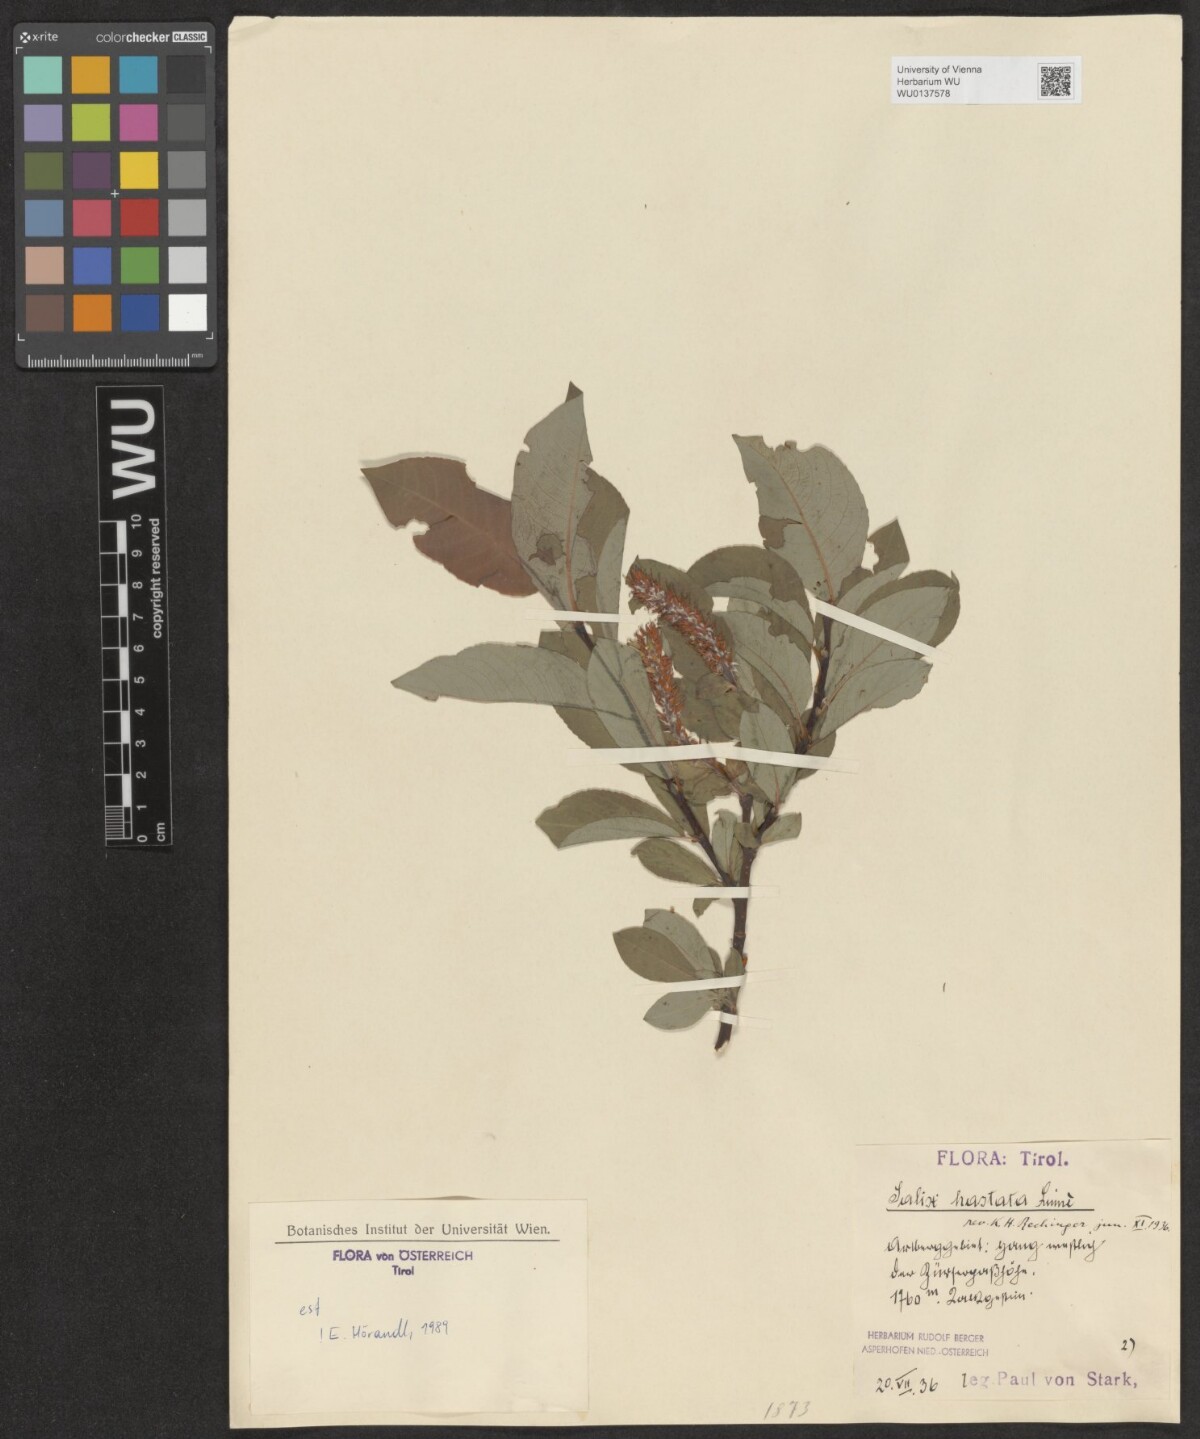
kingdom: Plantae
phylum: Tracheophyta
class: Magnoliopsida
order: Malpighiales
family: Salicaceae
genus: Salix
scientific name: Salix hastata
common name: Halberd willow
